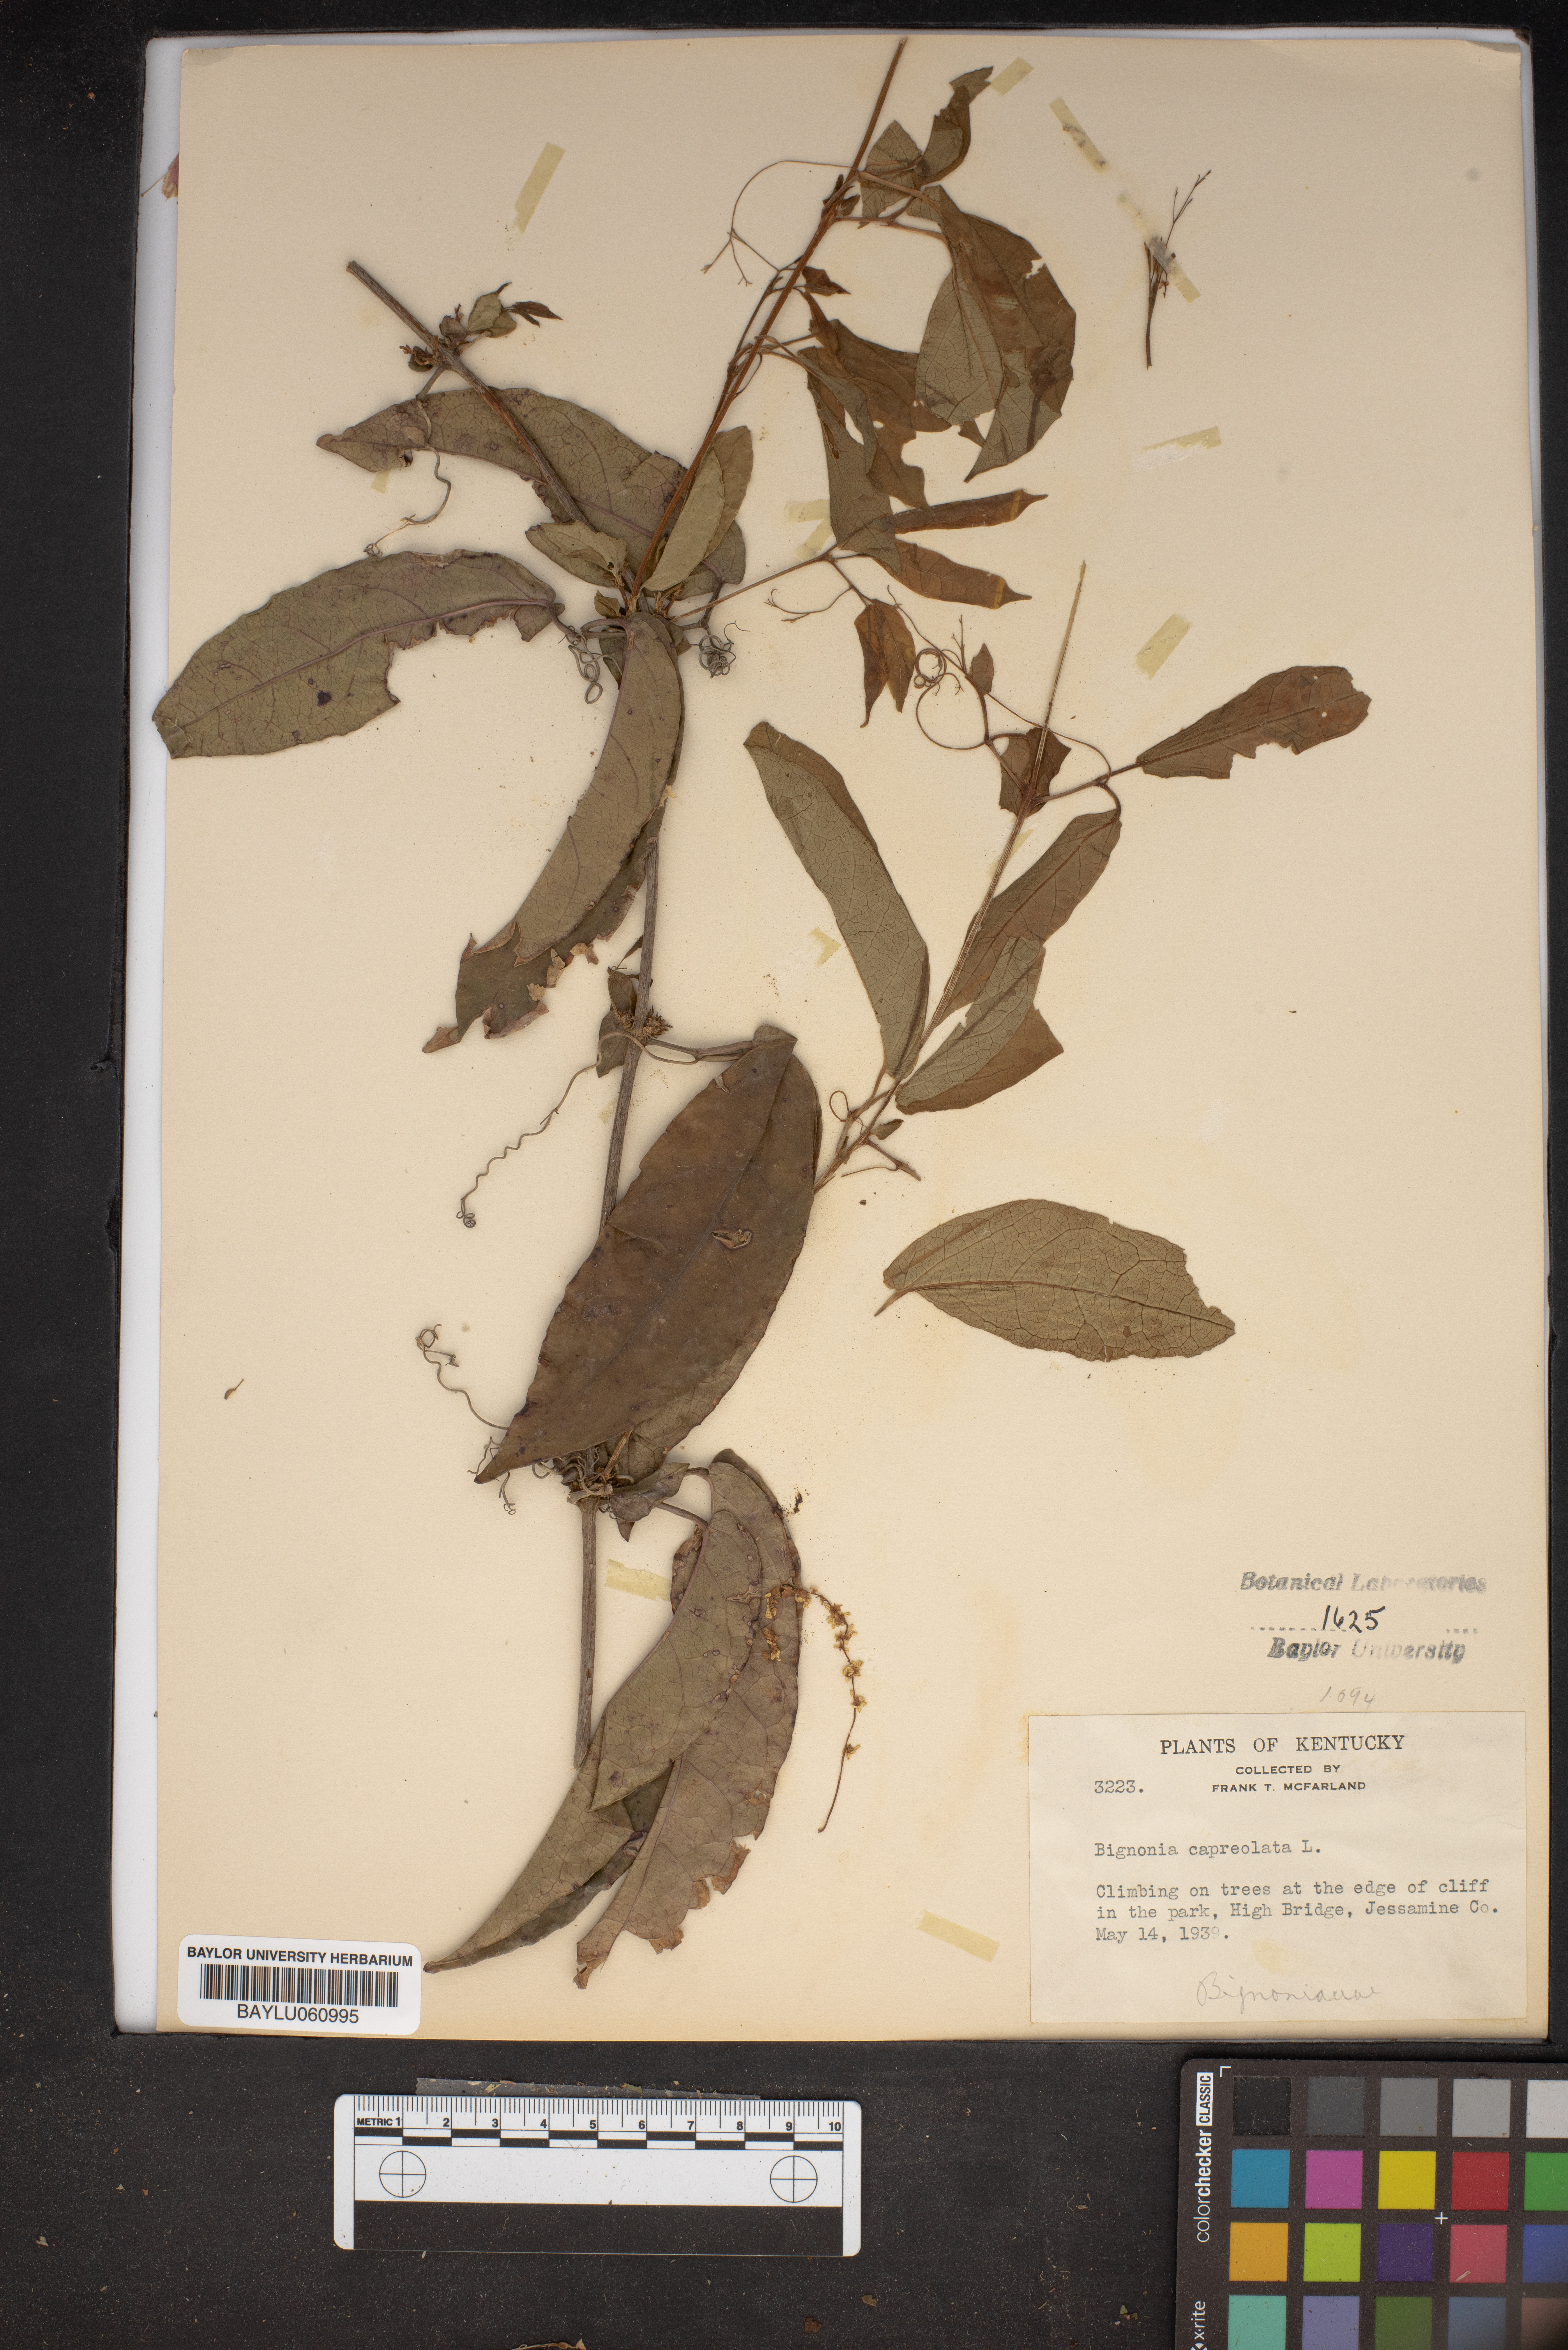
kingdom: Plantae
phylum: Tracheophyta
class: Magnoliopsida
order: Lamiales
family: Bignoniaceae
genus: Bignonia
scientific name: Bignonia capreolata
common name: Crossvine
